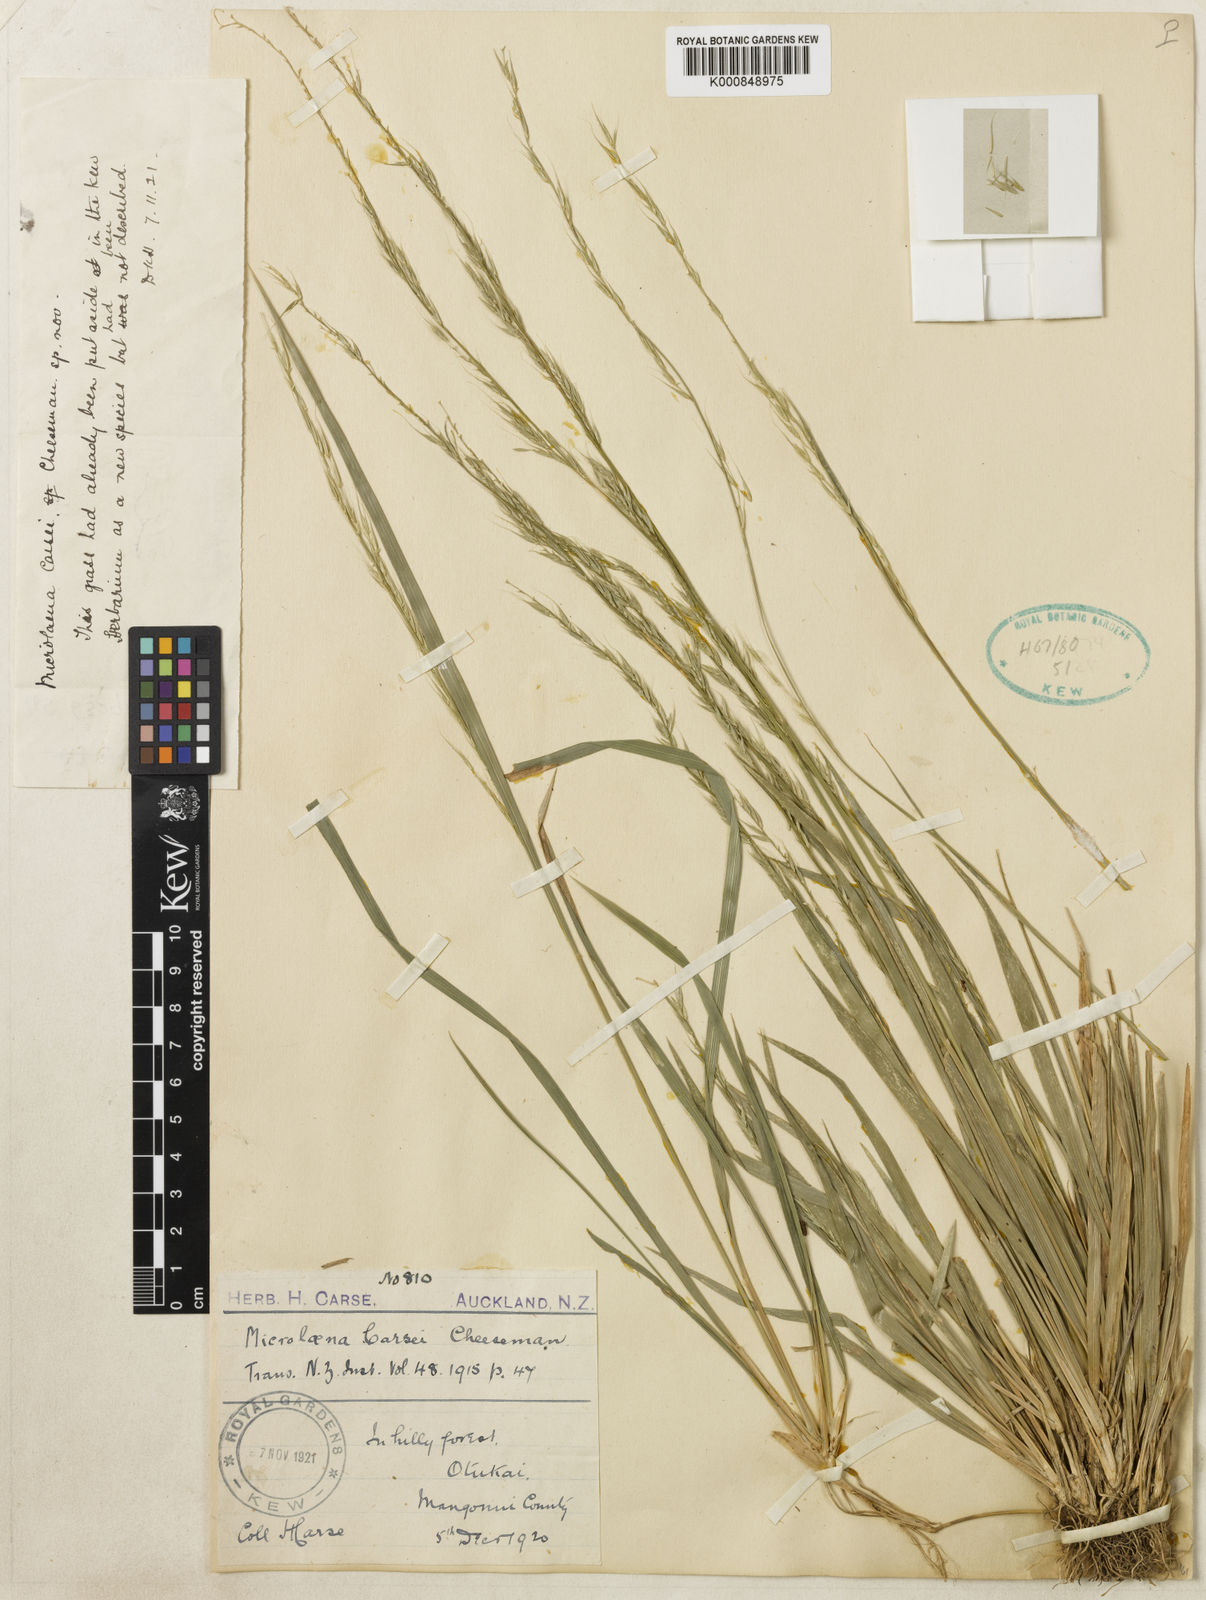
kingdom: Plantae
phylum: Tracheophyta
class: Liliopsida
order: Poales
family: Poaceae
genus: Ehrharta
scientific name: Ehrharta diplax
